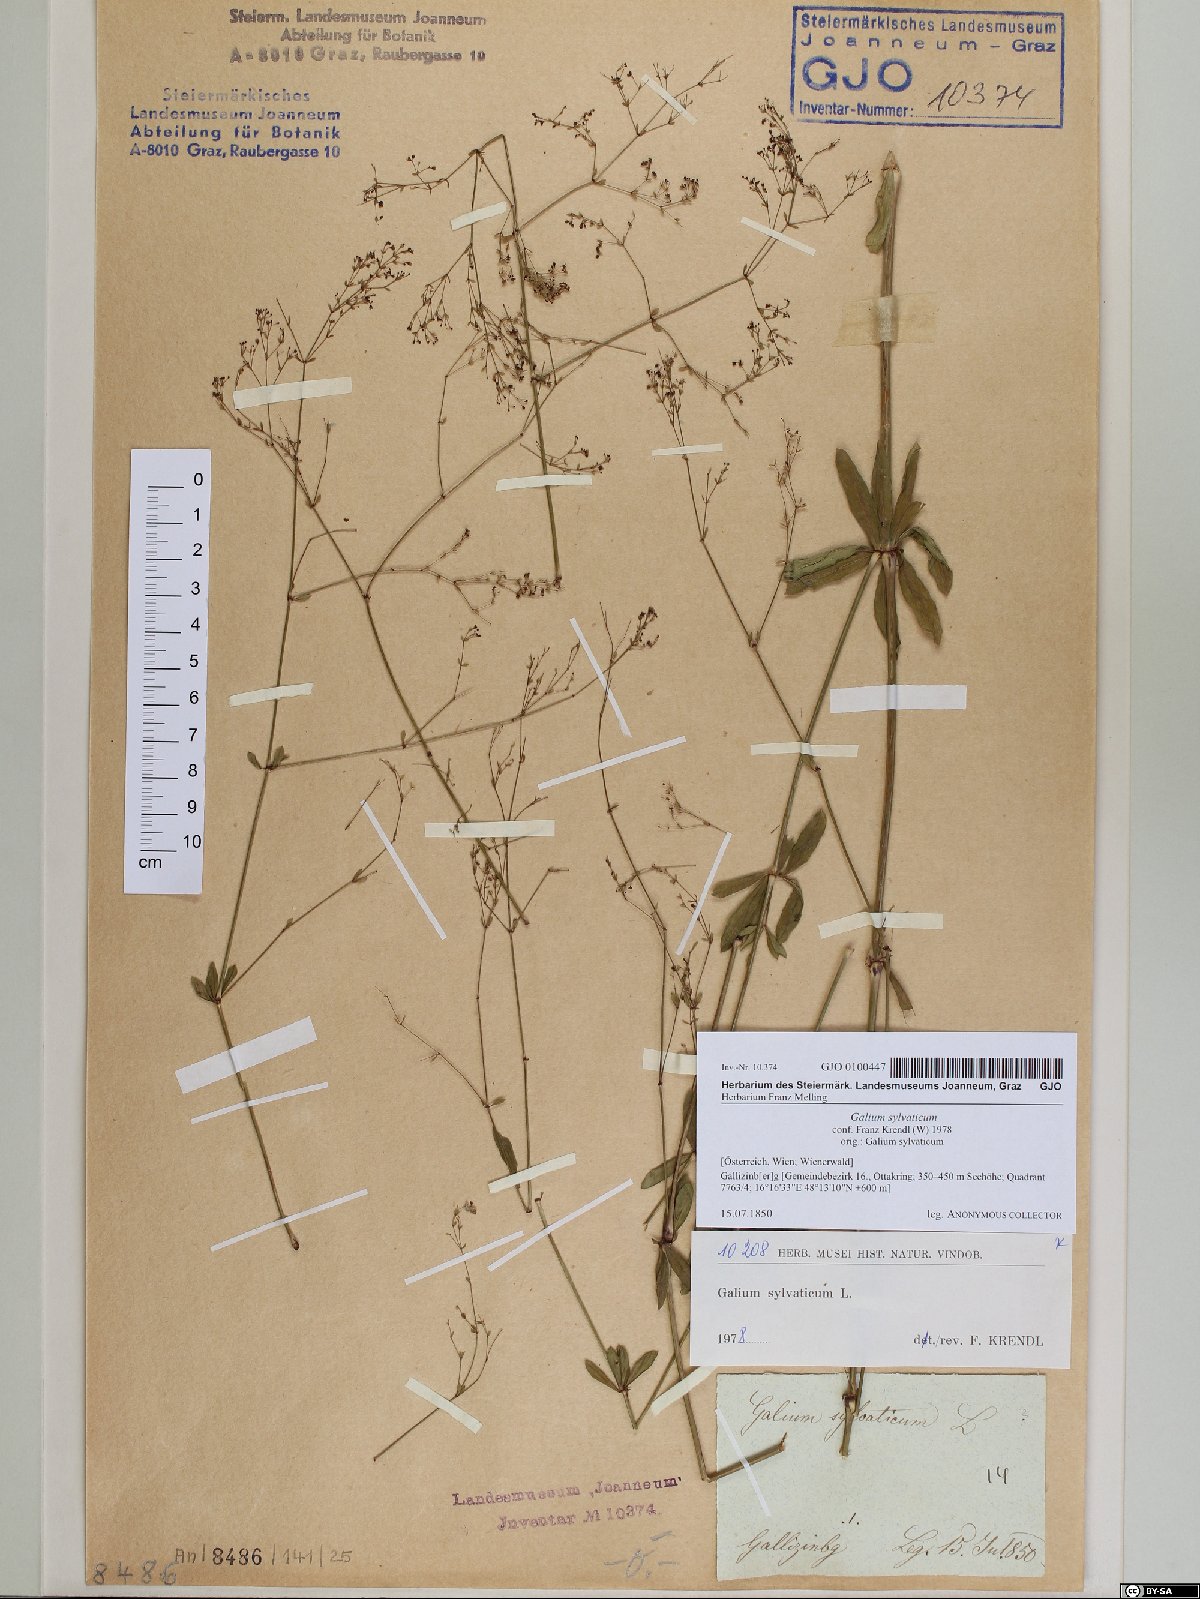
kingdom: Plantae
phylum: Tracheophyta
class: Magnoliopsida
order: Gentianales
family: Rubiaceae
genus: Galium
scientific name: Galium sylvaticum
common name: Wood bedstraw
